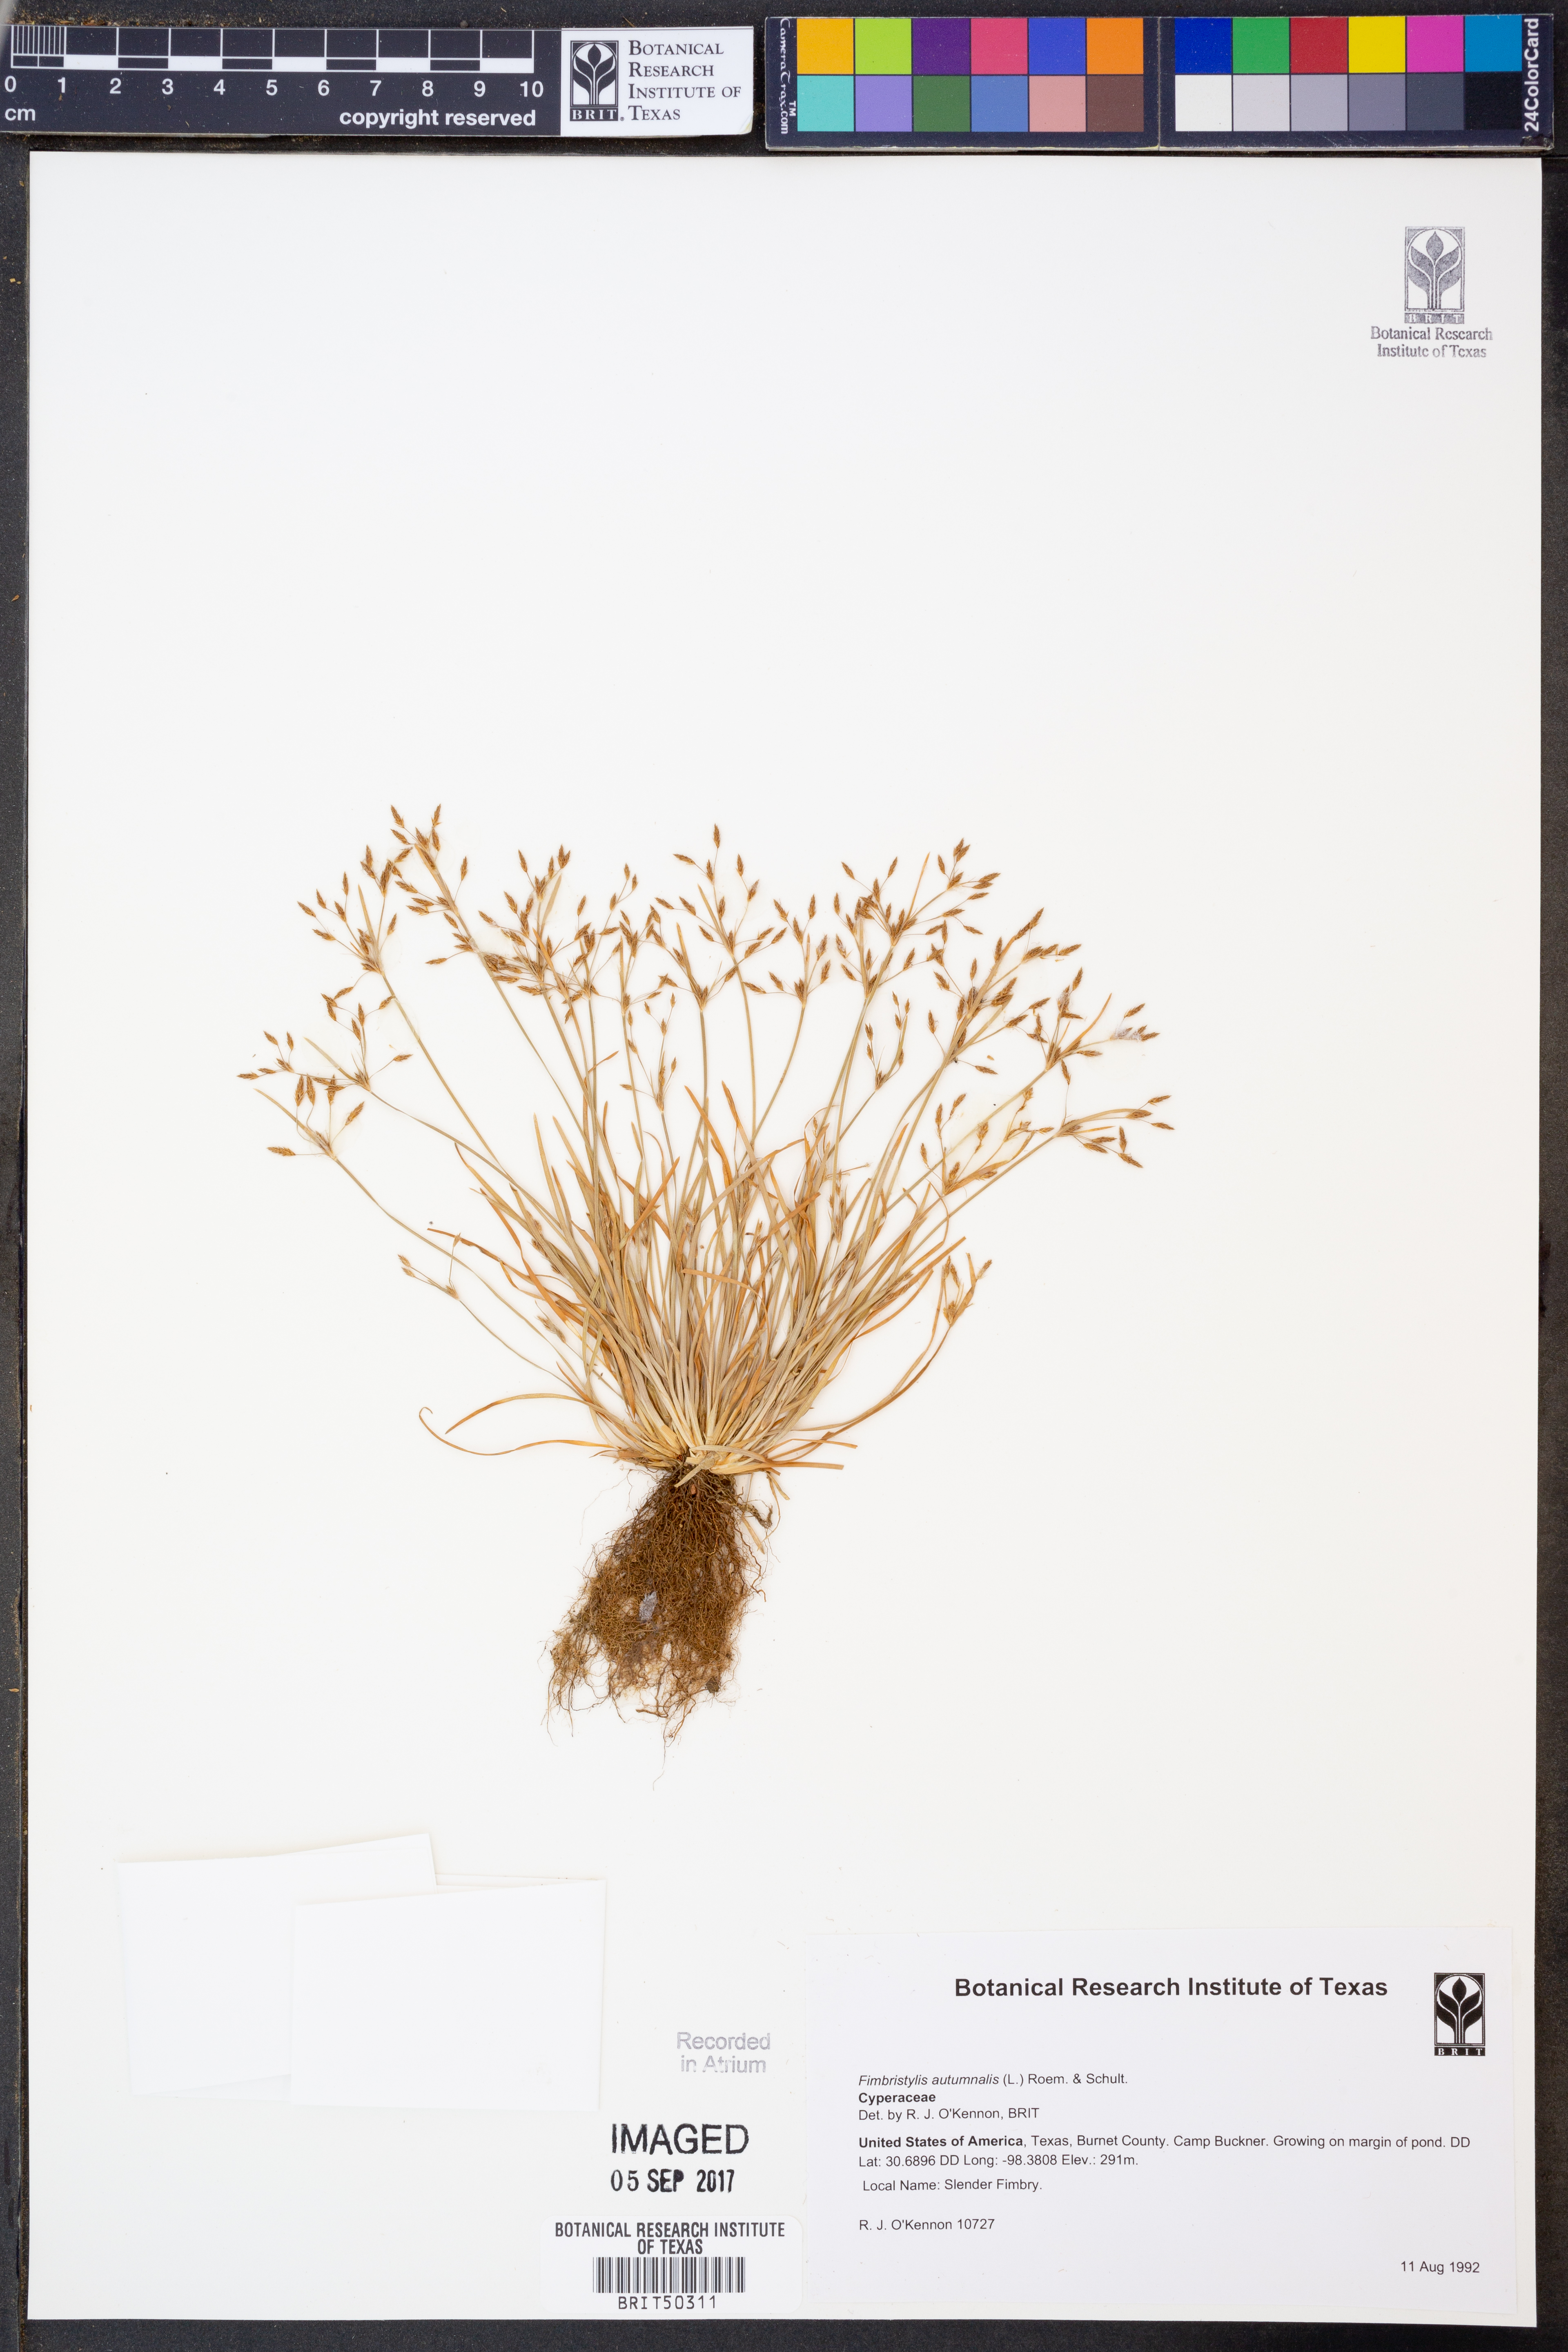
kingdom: Plantae
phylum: Tracheophyta
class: Liliopsida
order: Poales
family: Cyperaceae
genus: Fimbristylis
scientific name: Fimbristylis autumnalis
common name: Slender fimbristylis
